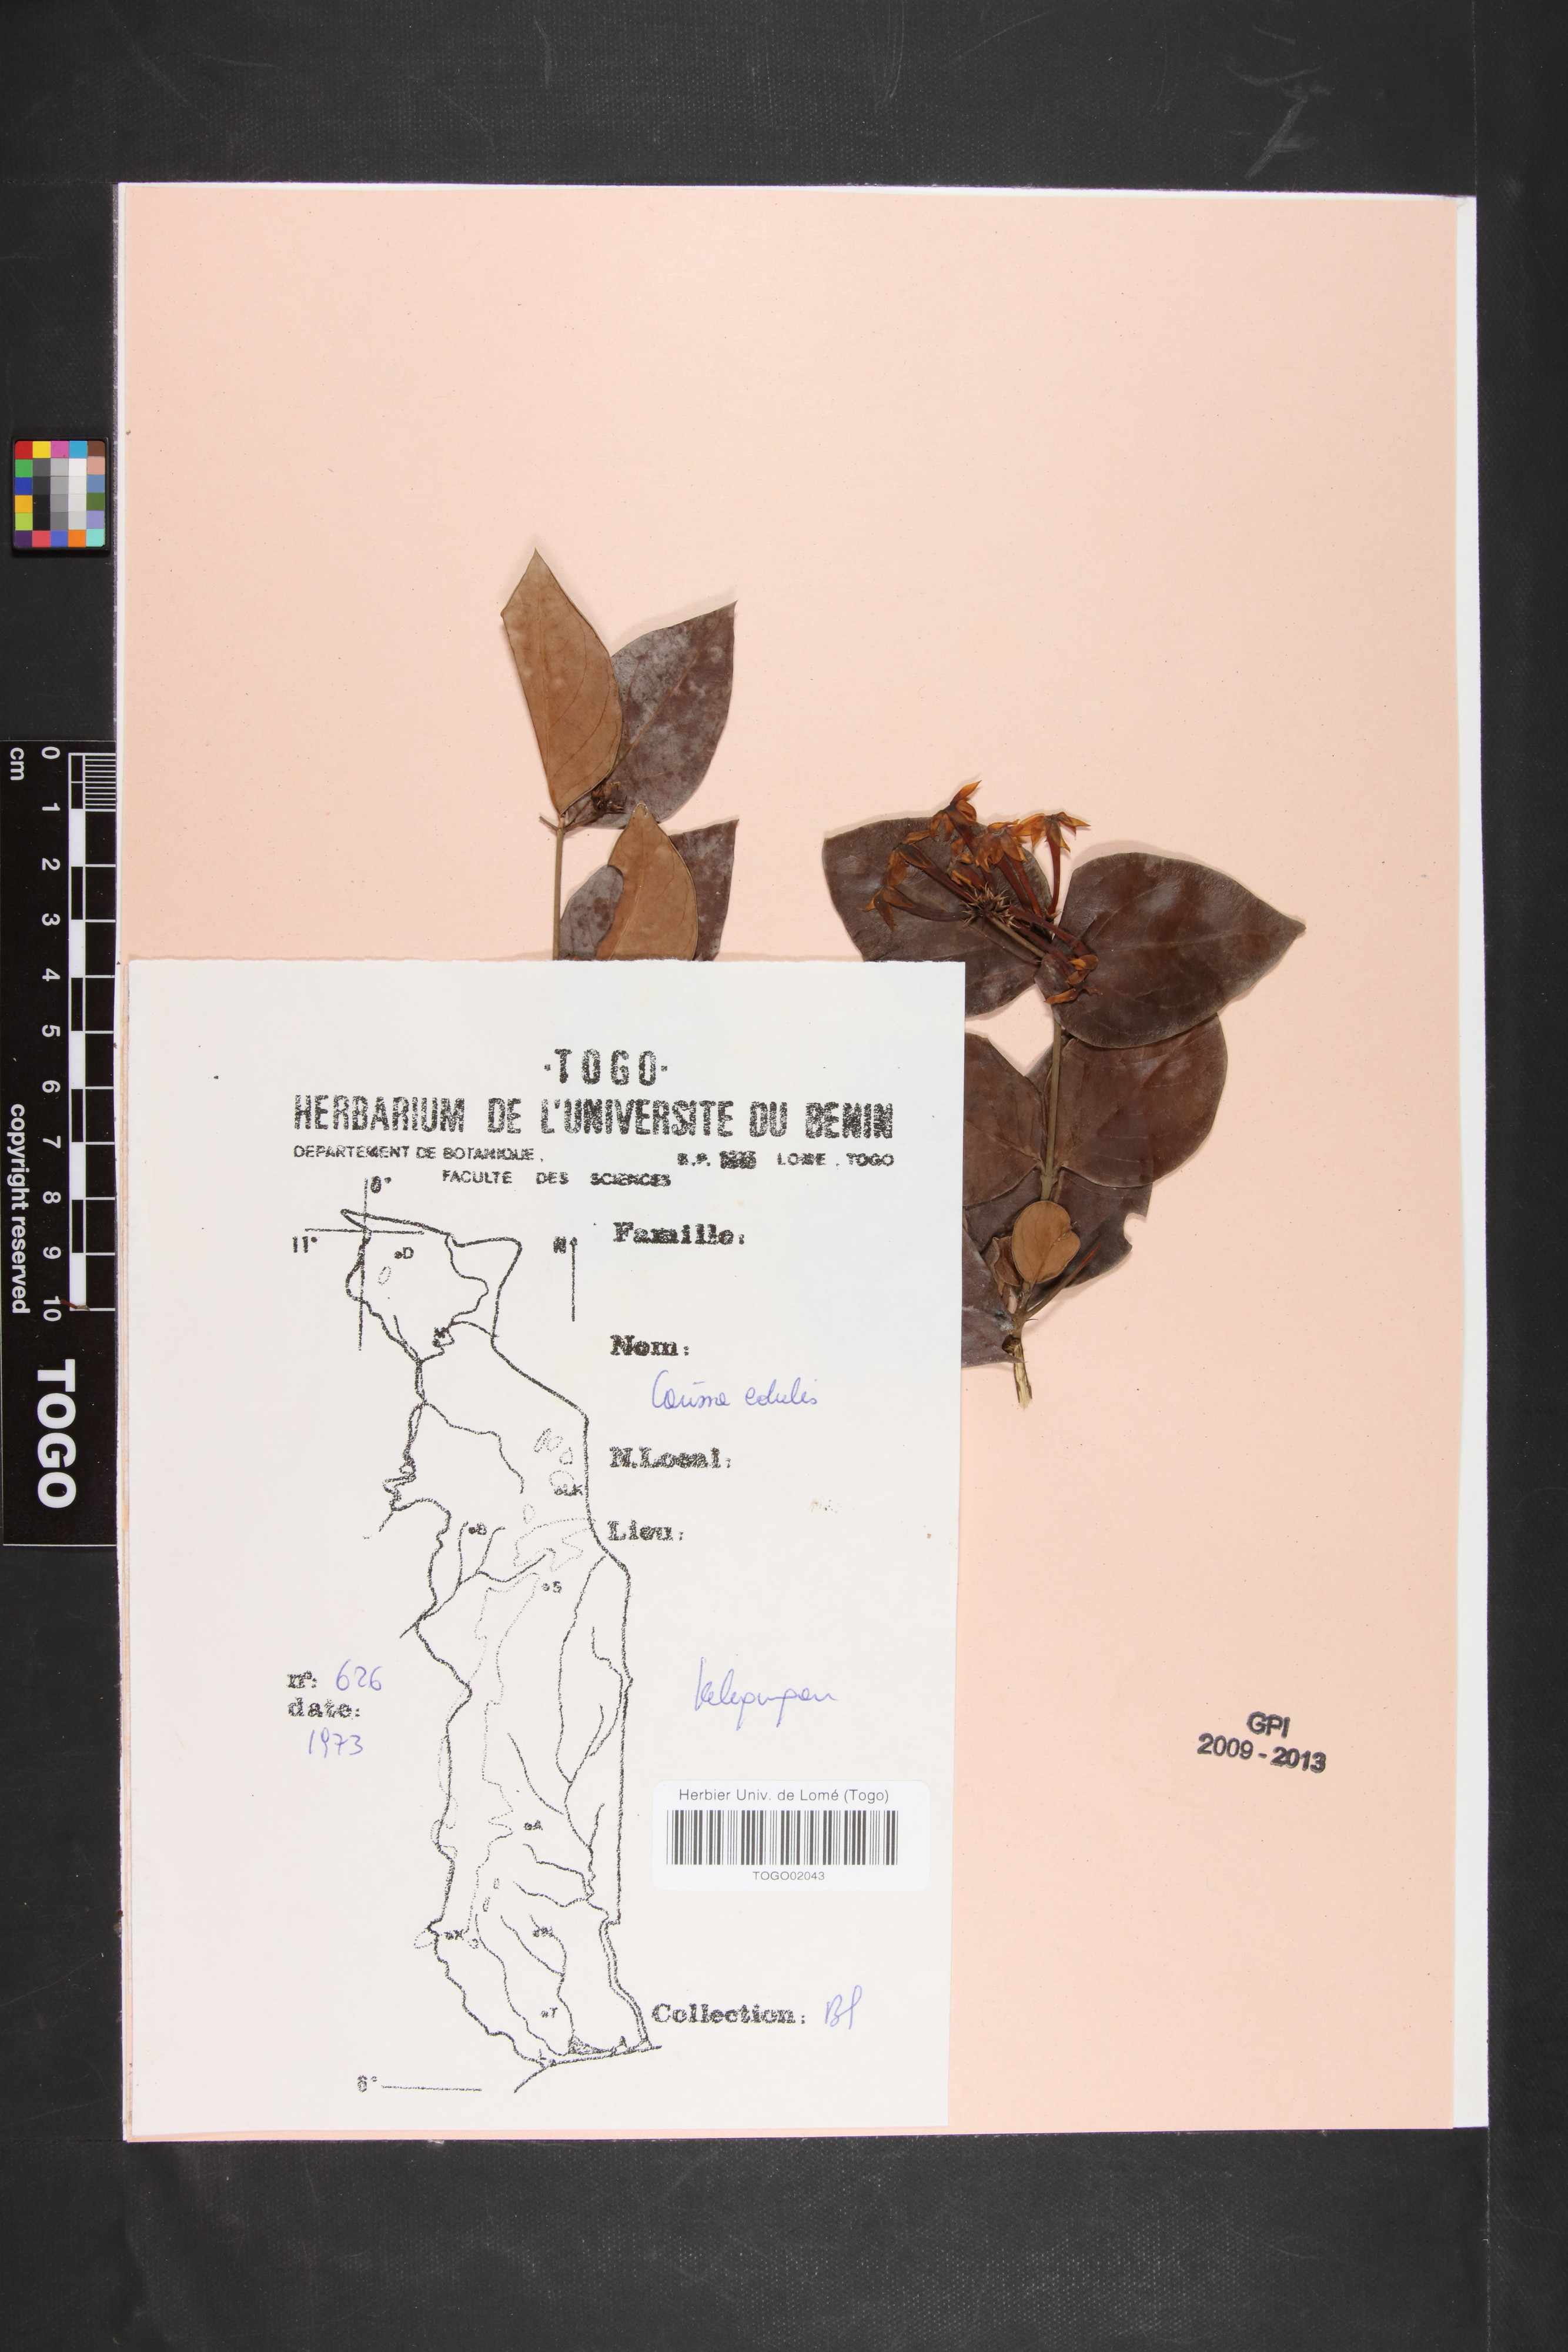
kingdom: Plantae
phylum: Tracheophyta
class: Magnoliopsida
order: Gentianales
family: Apocynaceae
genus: Carissa
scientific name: Carissa spinarum
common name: Egyptian carissa
